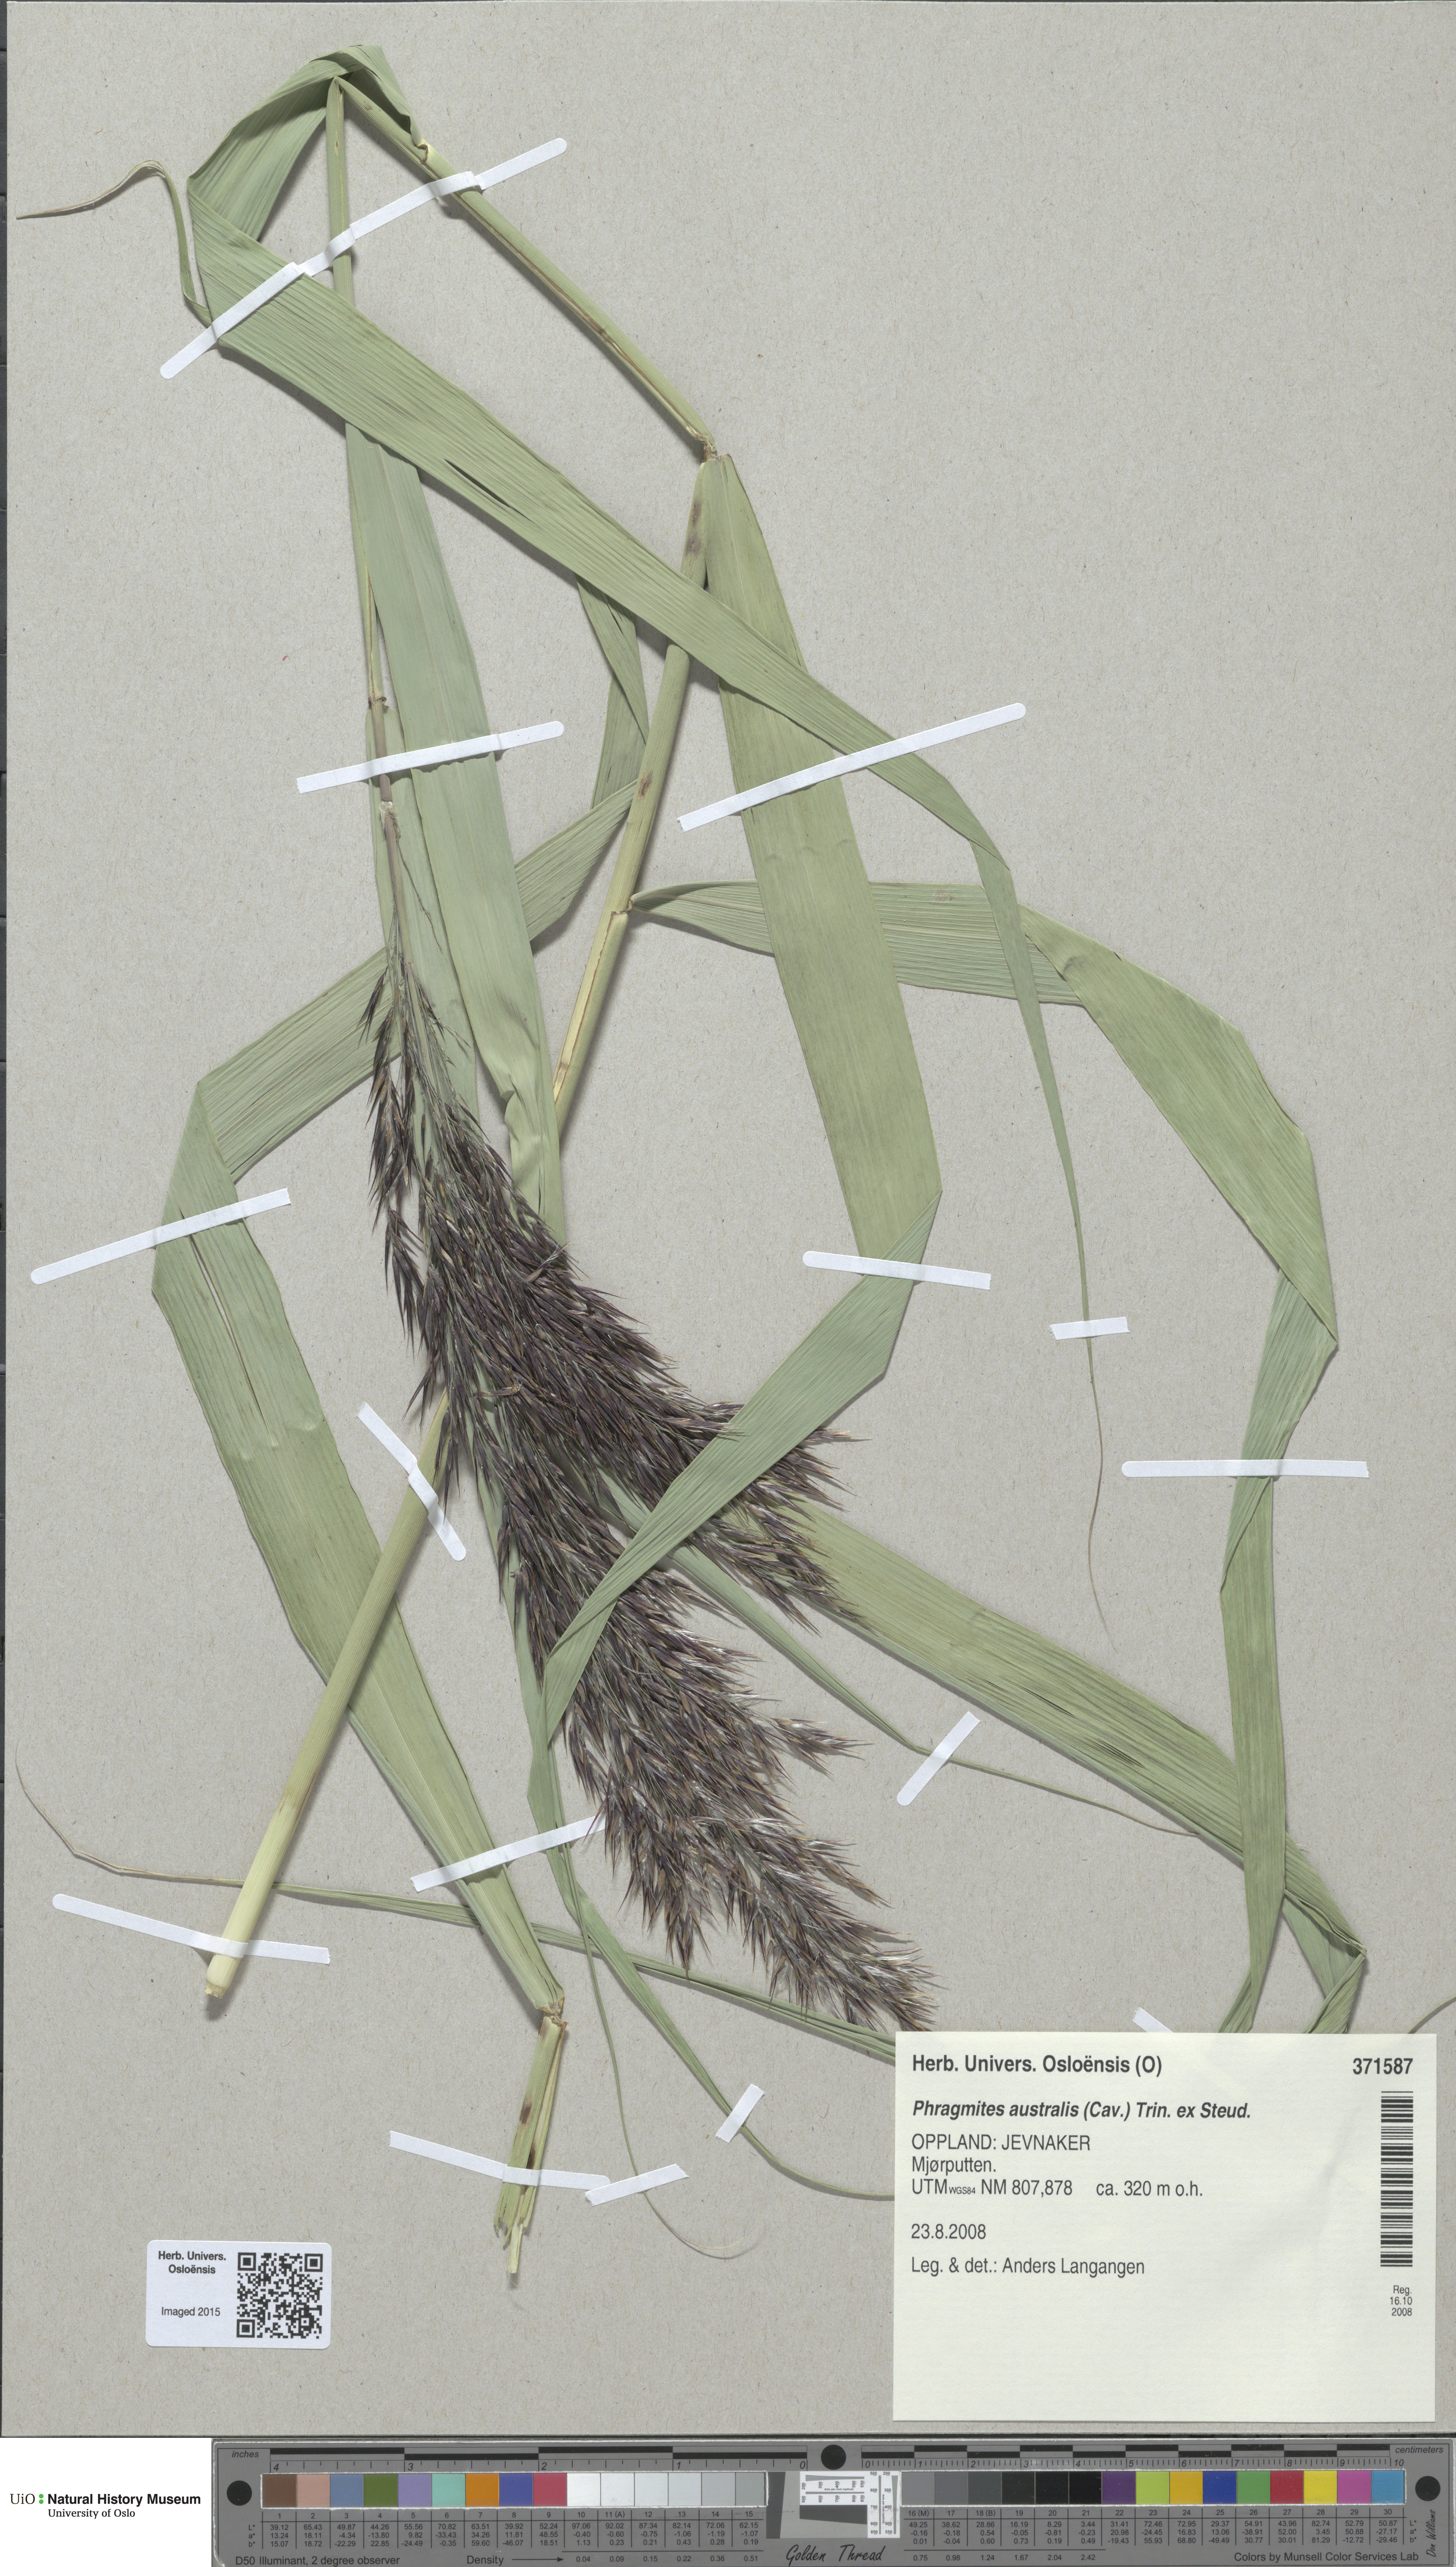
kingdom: Plantae
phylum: Tracheophyta
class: Liliopsida
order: Poales
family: Poaceae
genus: Phragmites
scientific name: Phragmites australis
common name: Common reed
